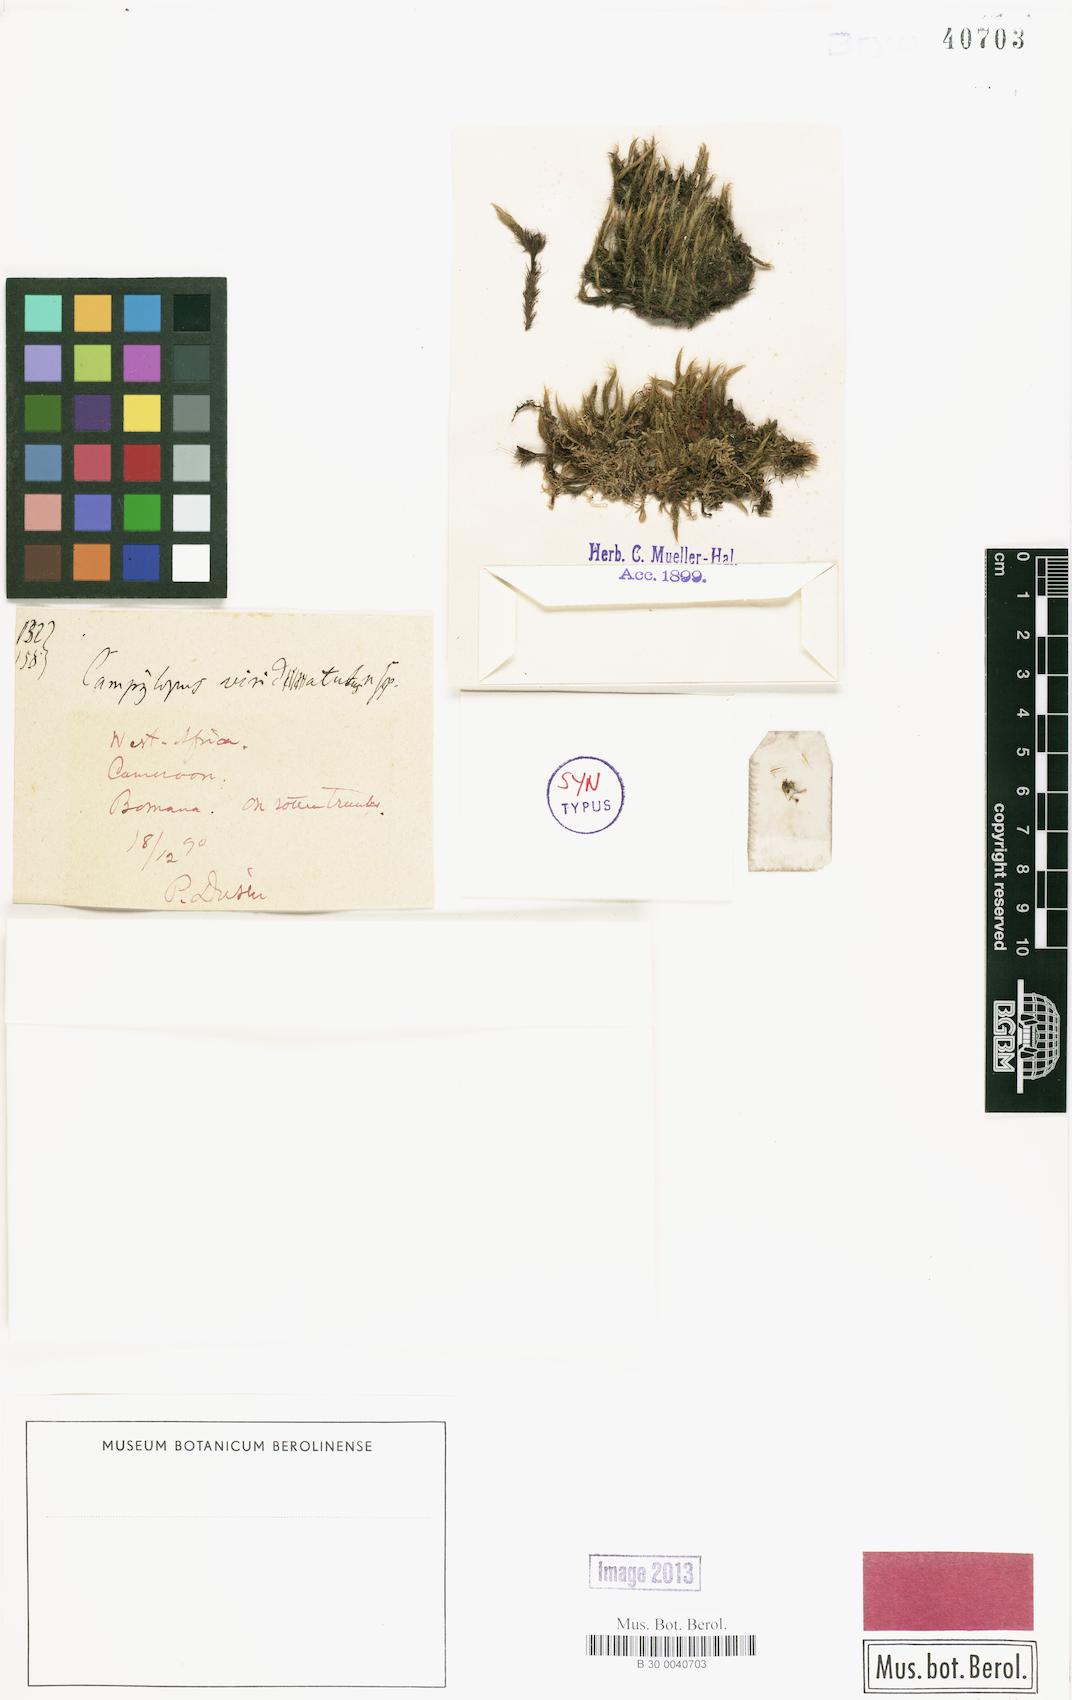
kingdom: Plantae
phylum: Bryophyta
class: Bryopsida
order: Dicranales
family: Leucobryaceae
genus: Campylopus
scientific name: Campylopus savannarum
